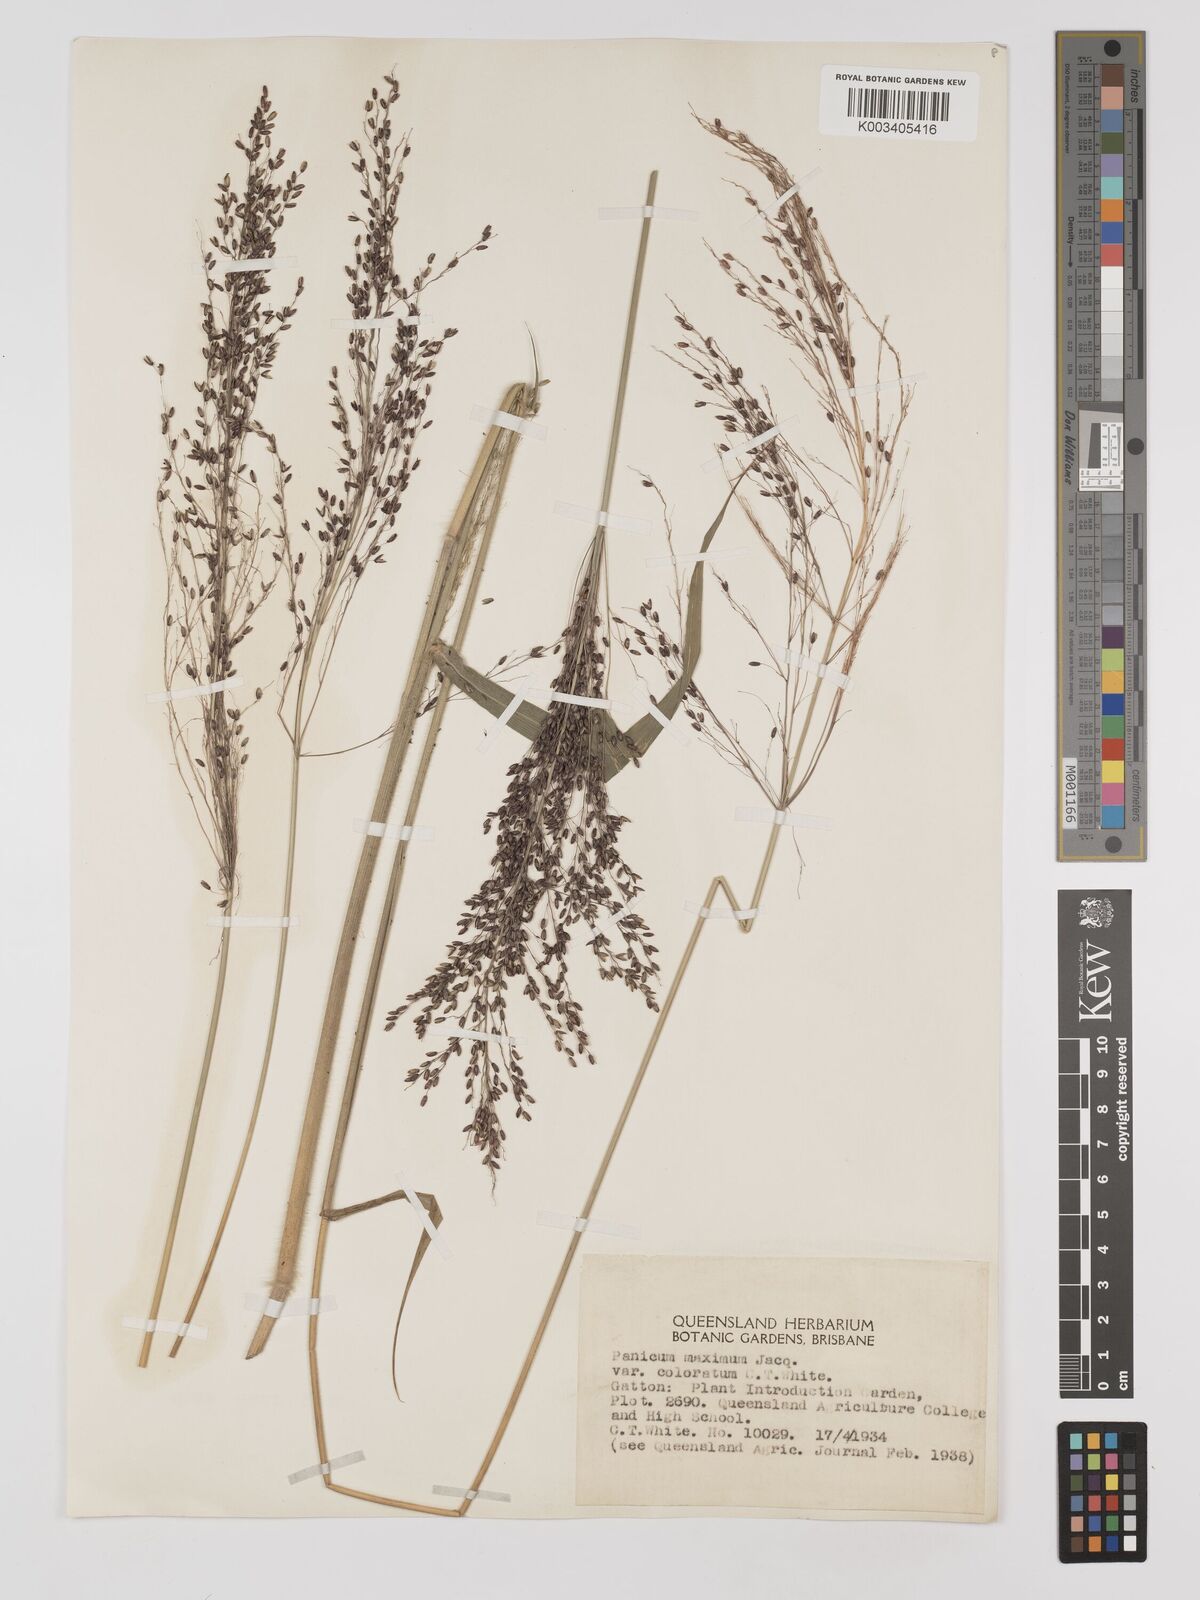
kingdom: Plantae
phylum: Tracheophyta
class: Liliopsida
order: Poales
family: Poaceae
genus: Megathyrsus
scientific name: Megathyrsus maximus
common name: Guineagrass
